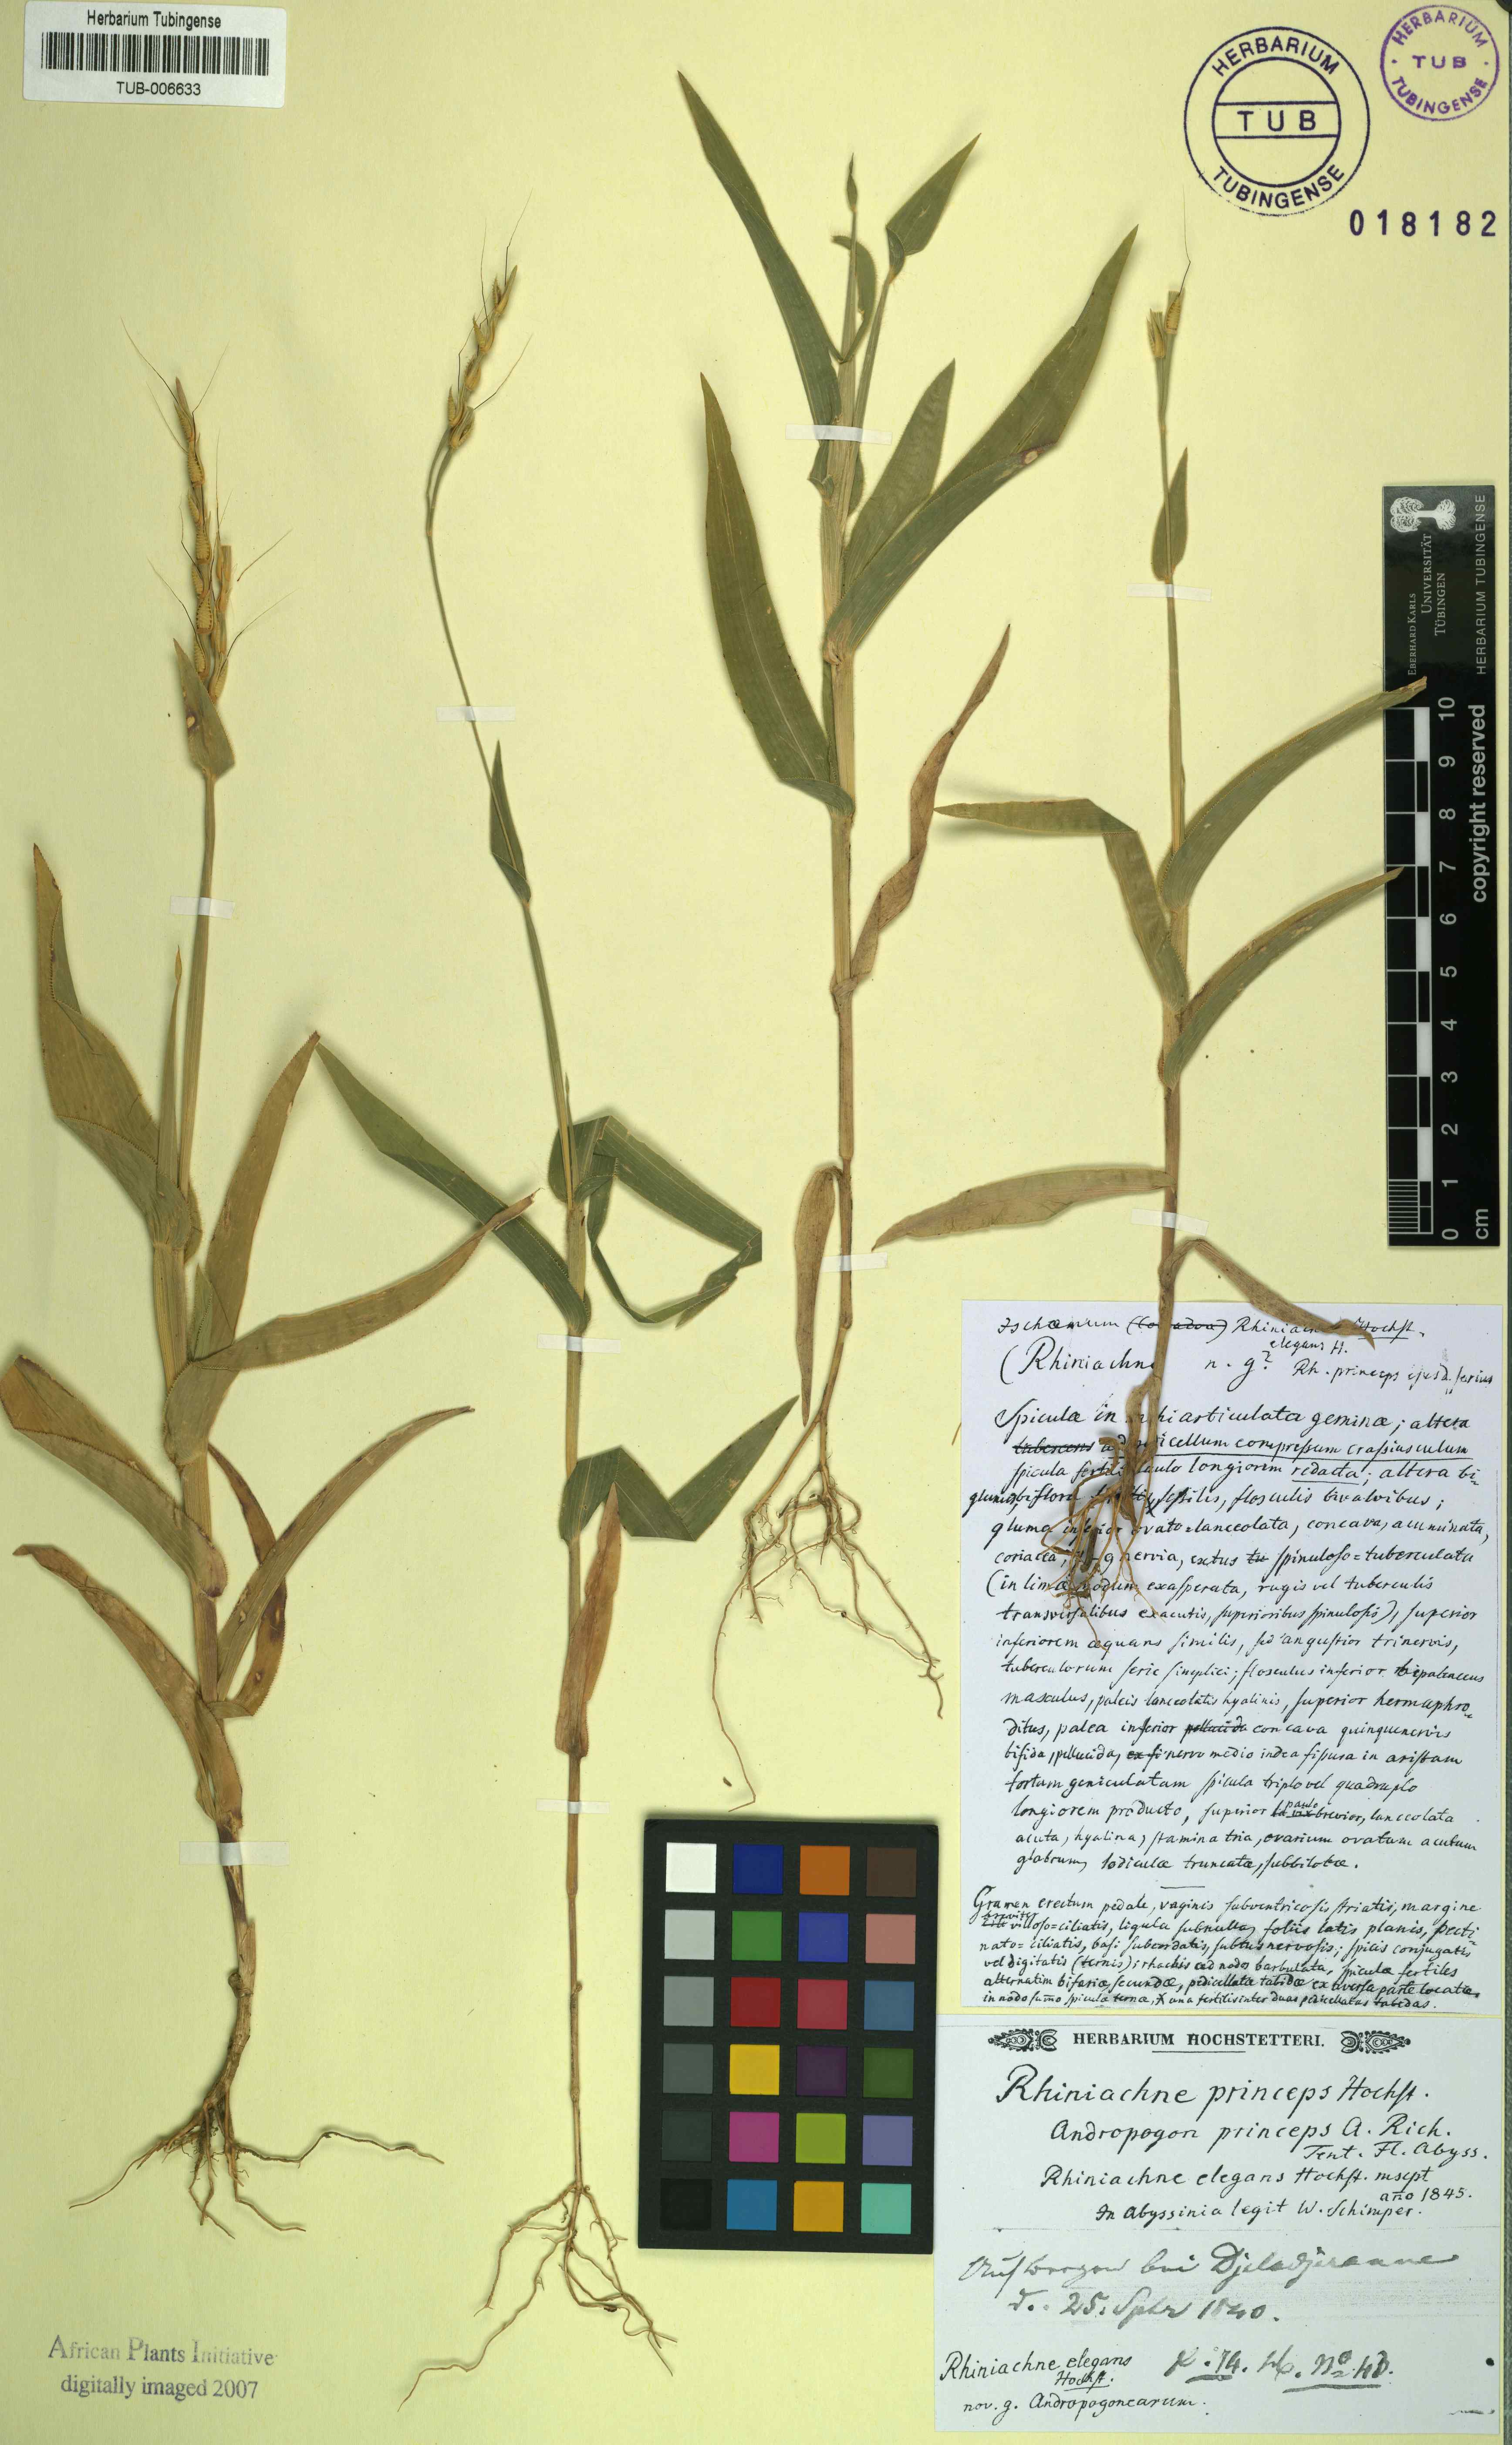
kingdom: Plantae
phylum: Tracheophyta
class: Liliopsida
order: Poales
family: Poaceae
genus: Thelepogon
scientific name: Thelepogon elegans
